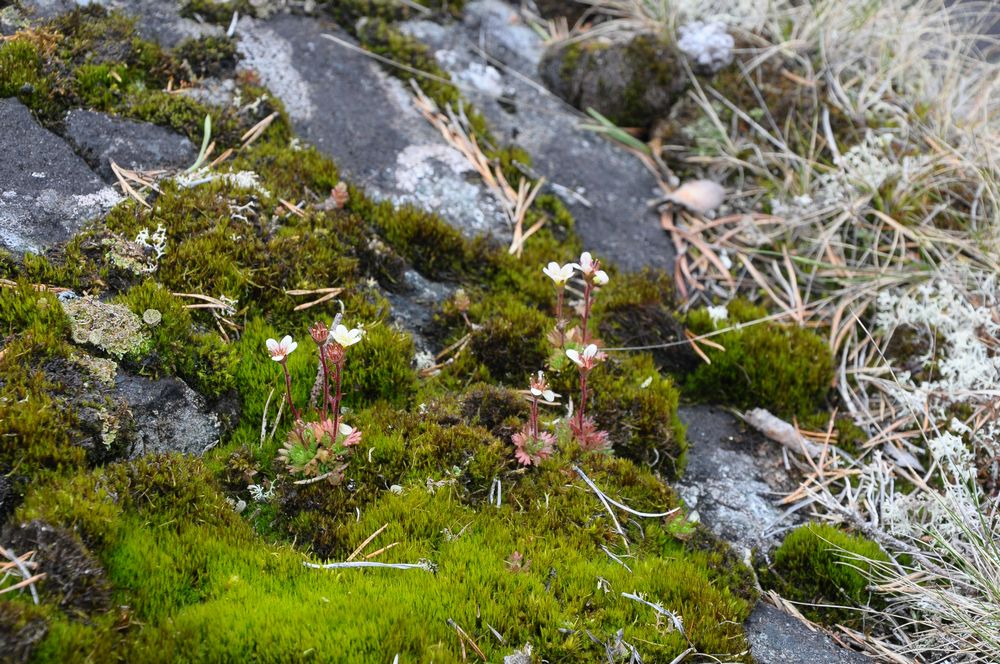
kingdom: Plantae
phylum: Tracheophyta
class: Magnoliopsida
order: Saxifragales
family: Saxifragaceae
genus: Saxifraga
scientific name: Saxifraga cespitosa
